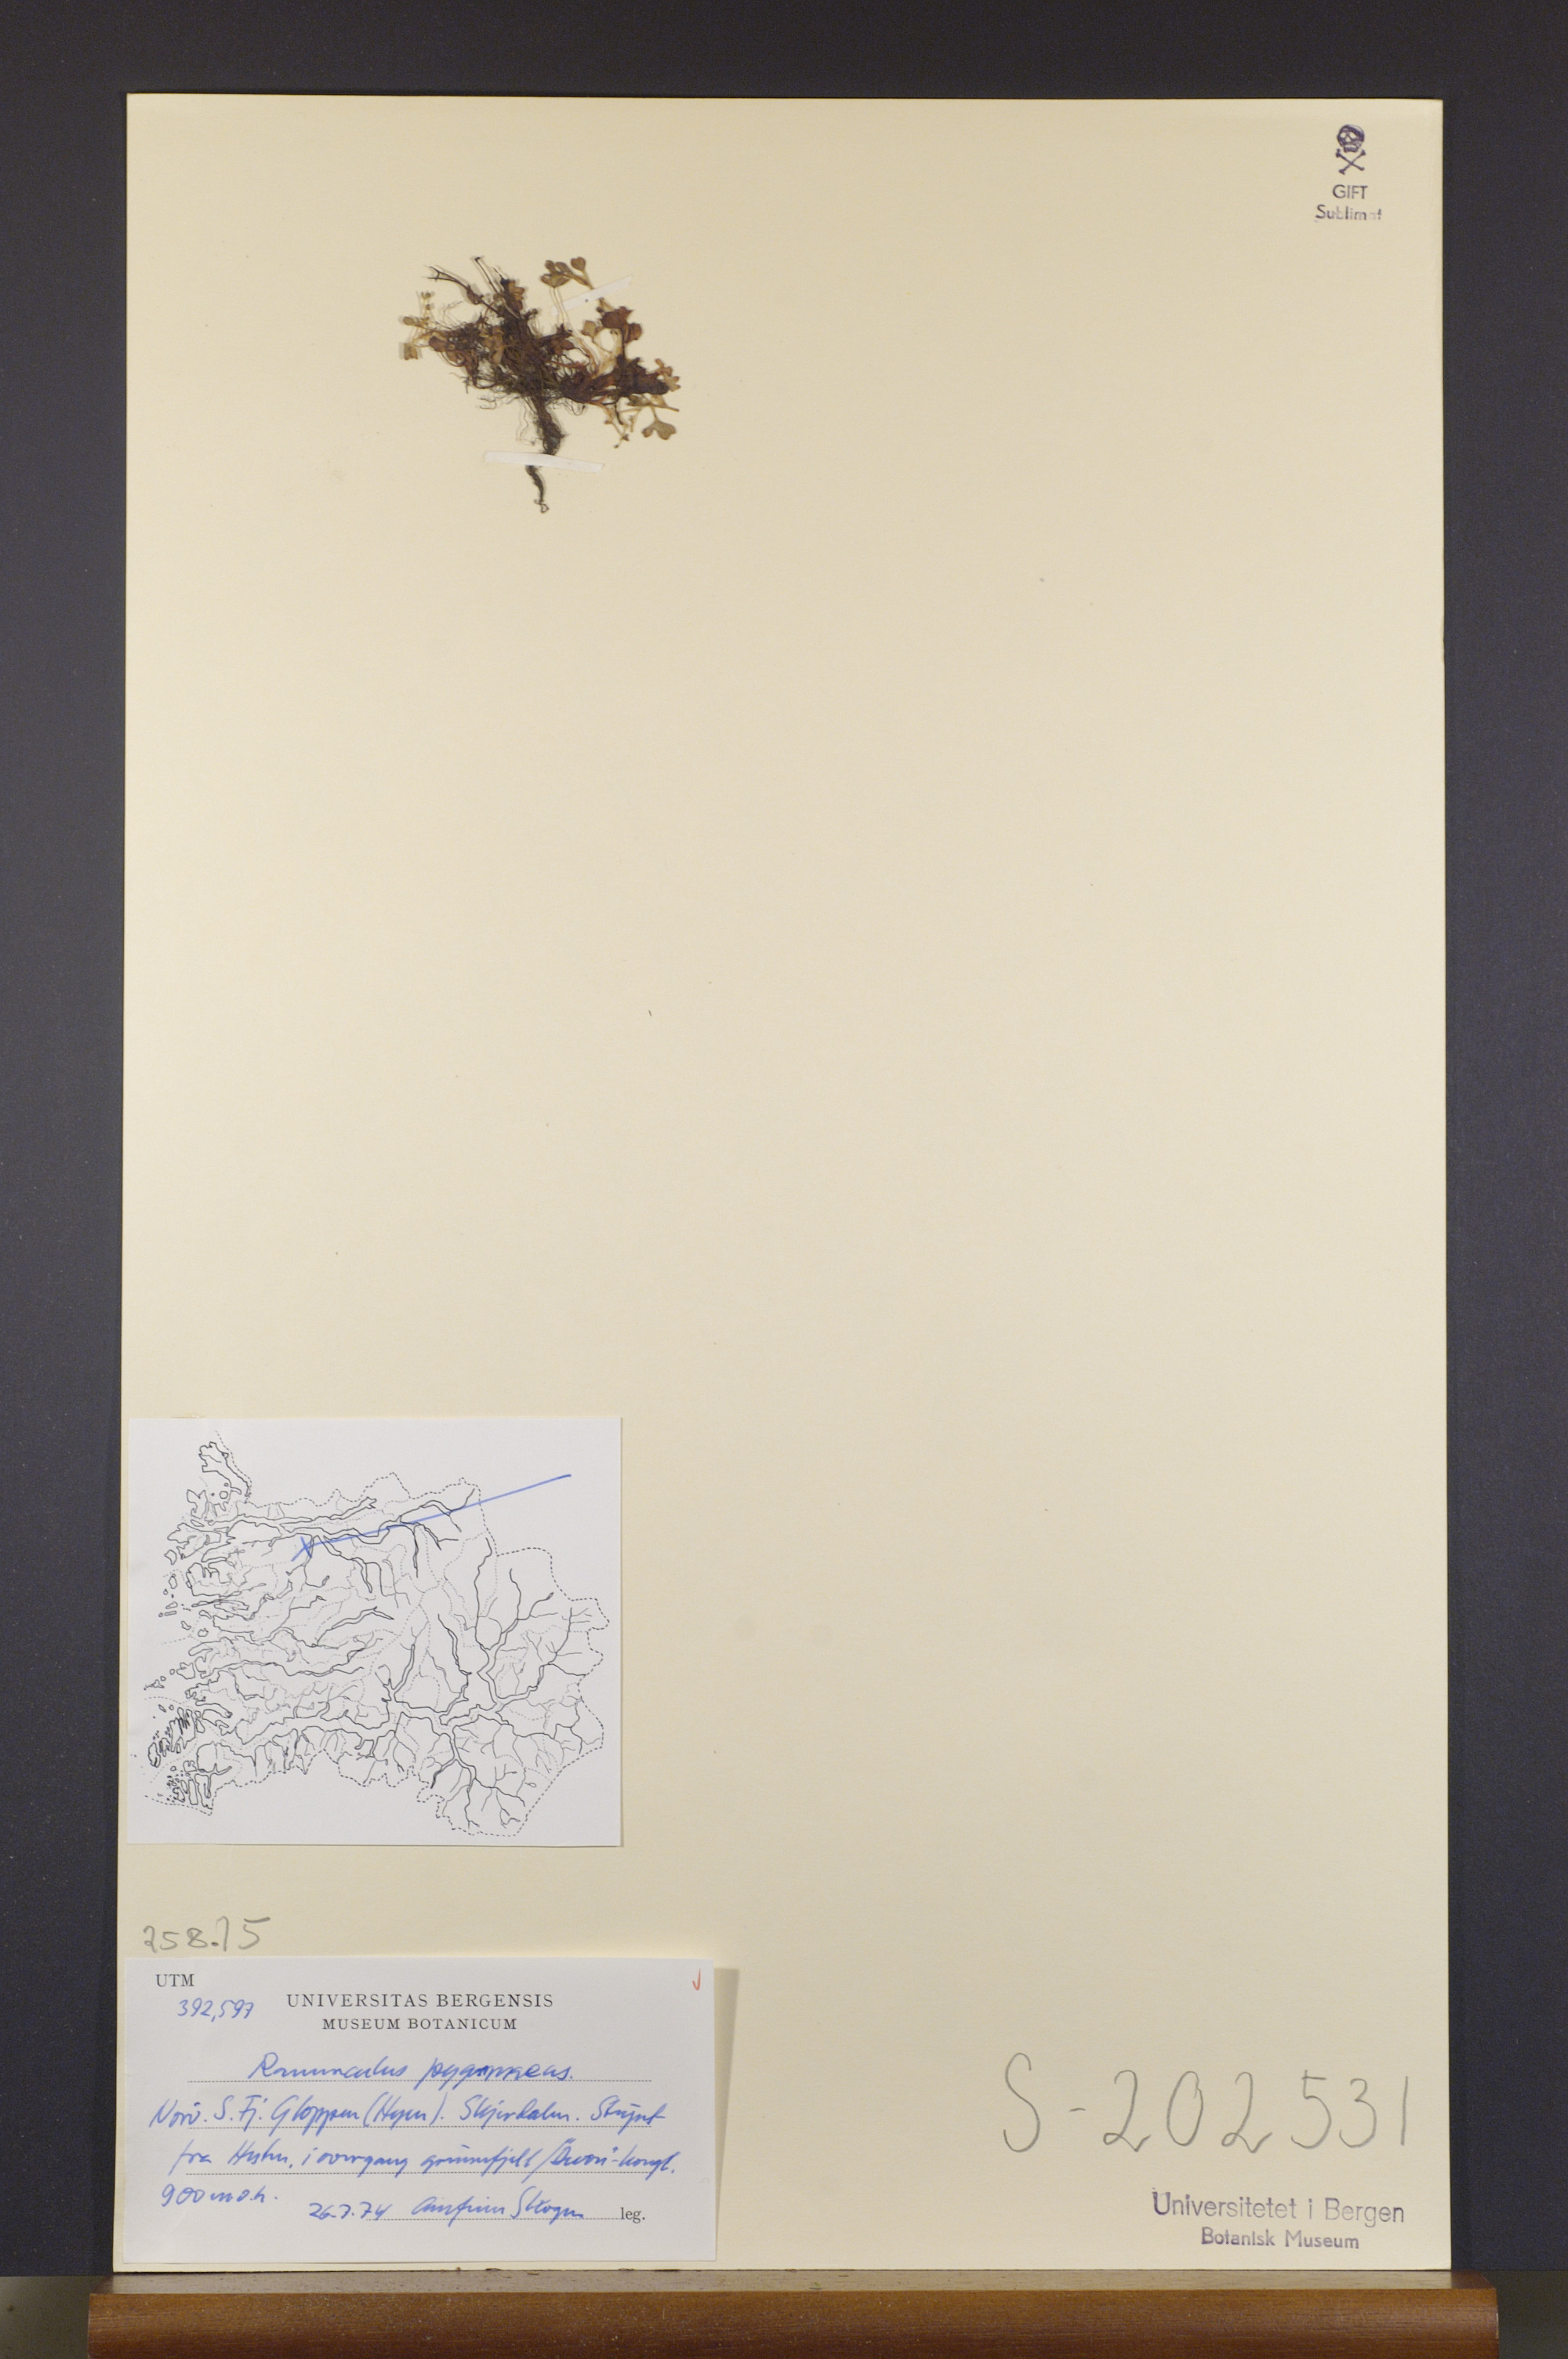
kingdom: Plantae
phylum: Tracheophyta
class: Magnoliopsida
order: Ranunculales
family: Ranunculaceae
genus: Ranunculus
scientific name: Ranunculus pygmaeus
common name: Dwarf buttercup
